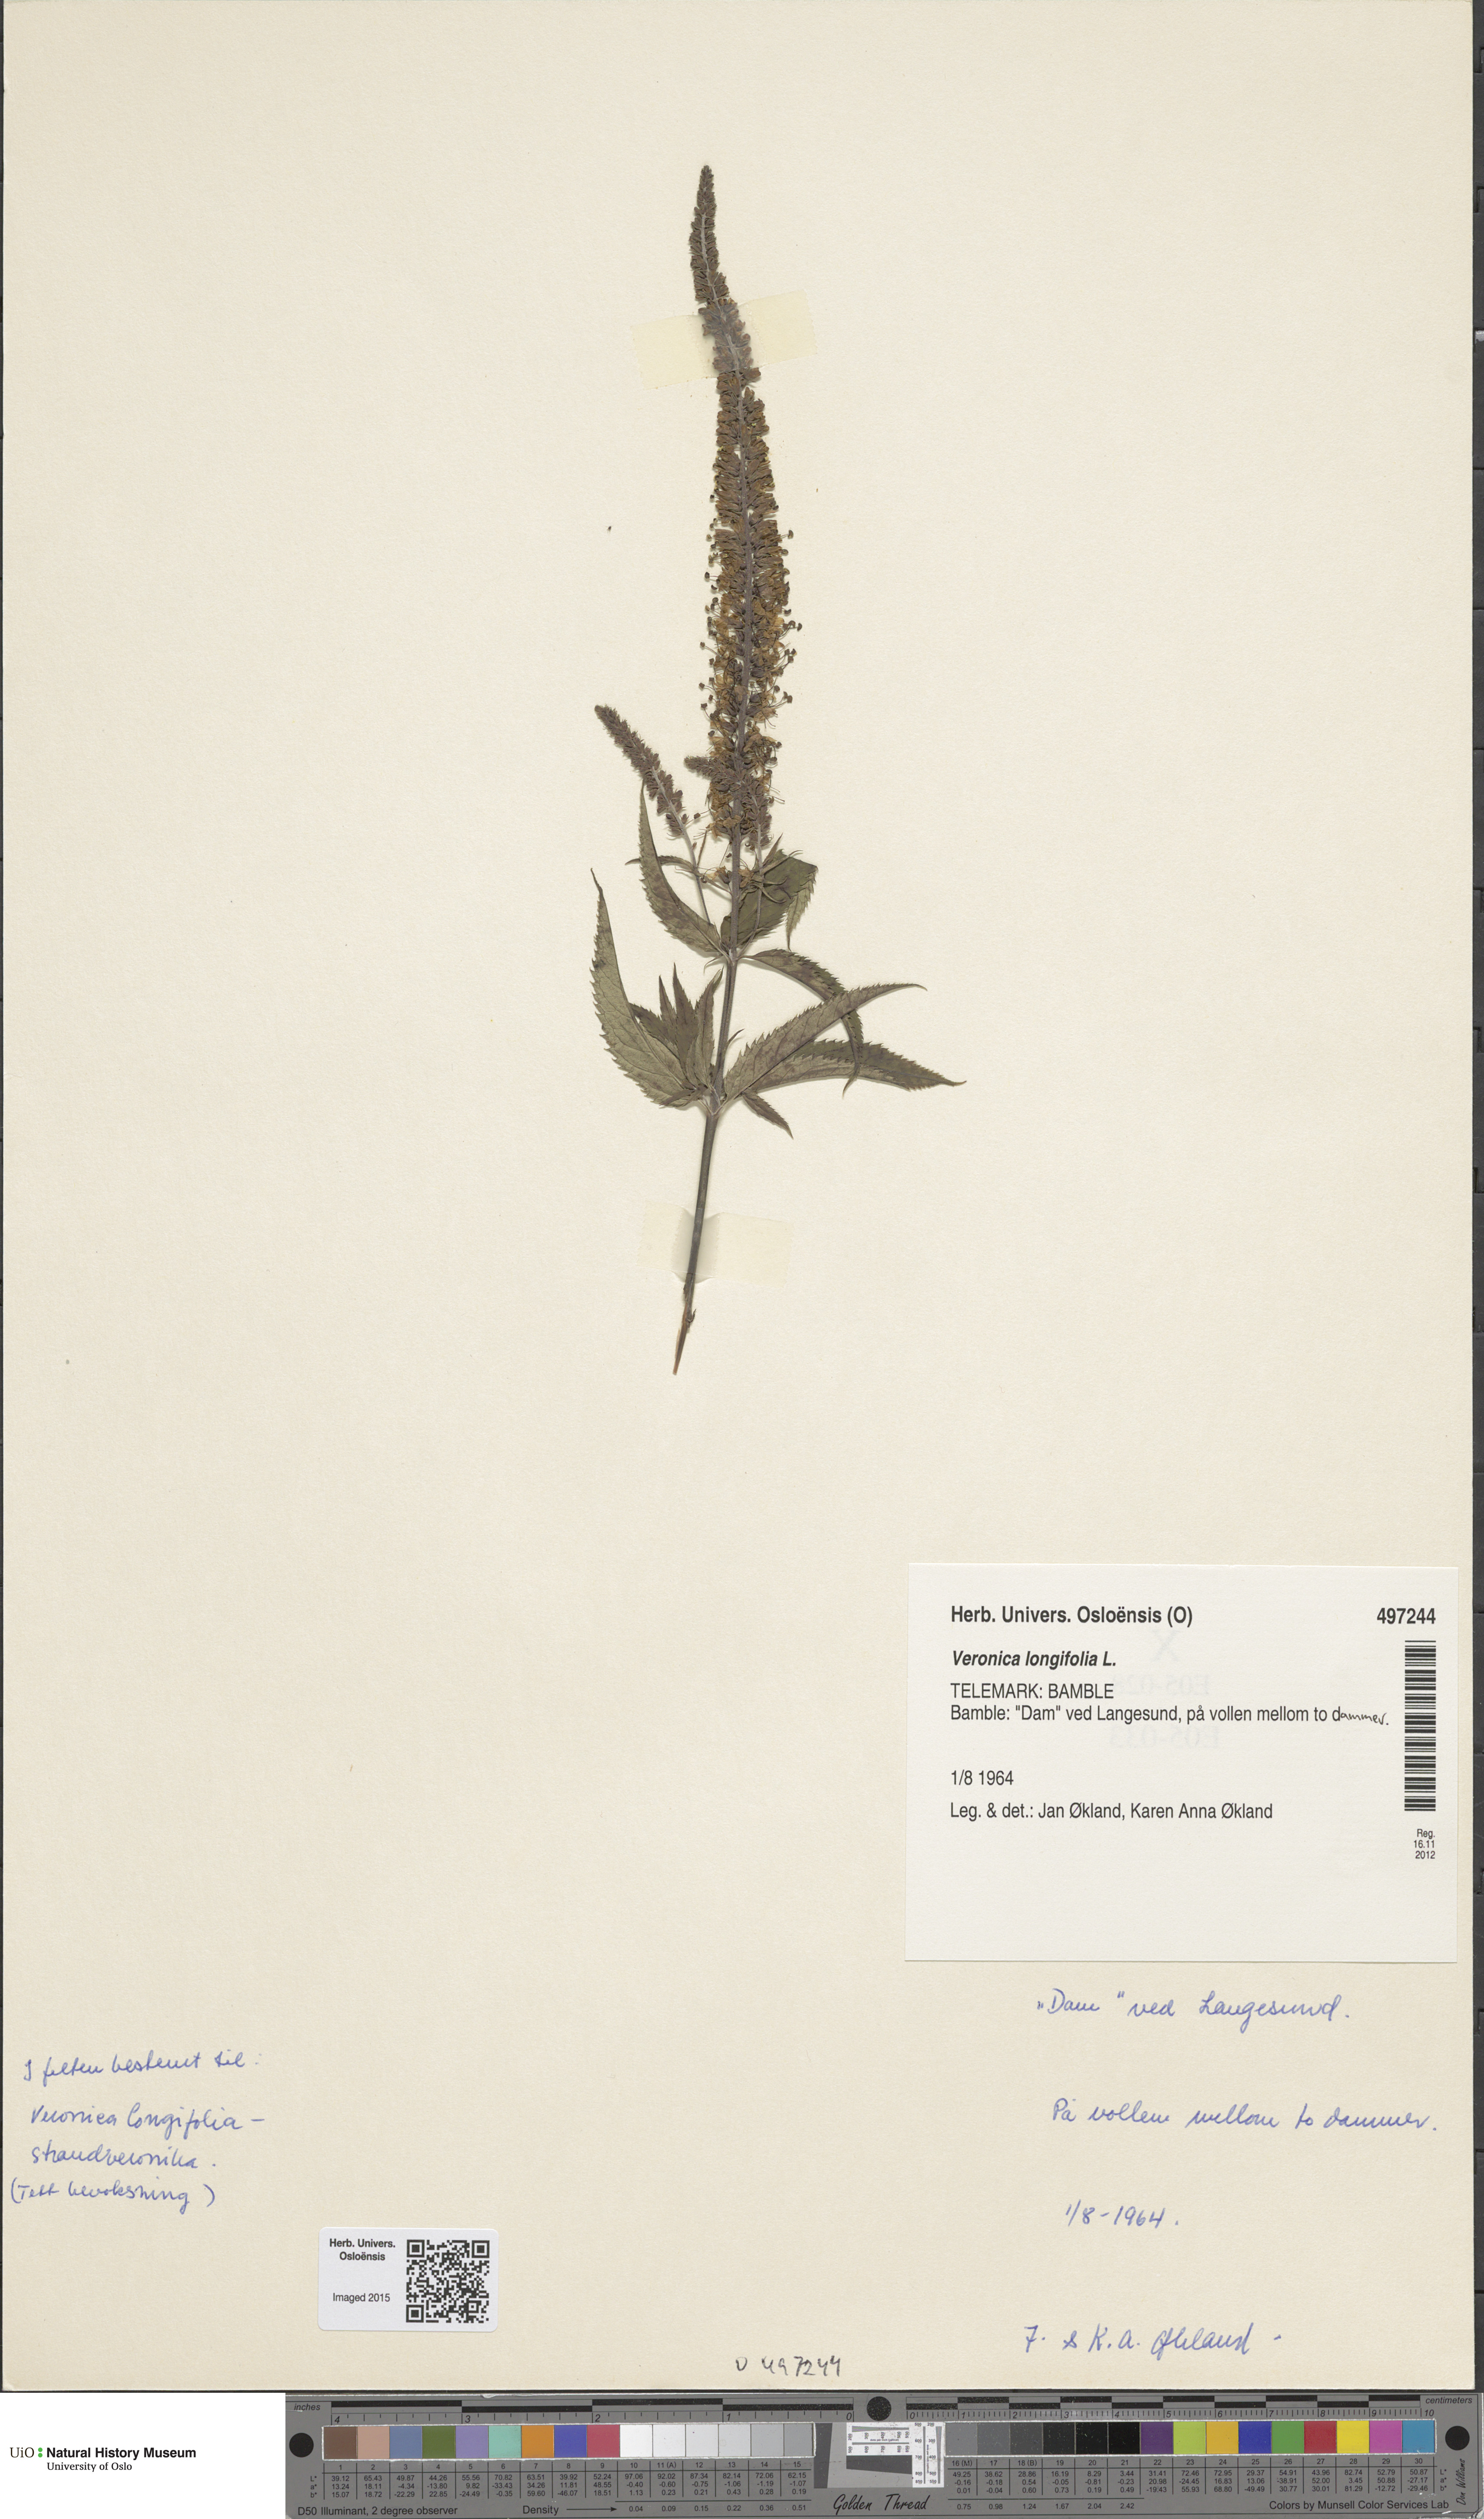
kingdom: Plantae
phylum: Tracheophyta
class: Magnoliopsida
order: Lamiales
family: Plantaginaceae
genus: Veronica
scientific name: Veronica longifolia
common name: Garden speedwell
